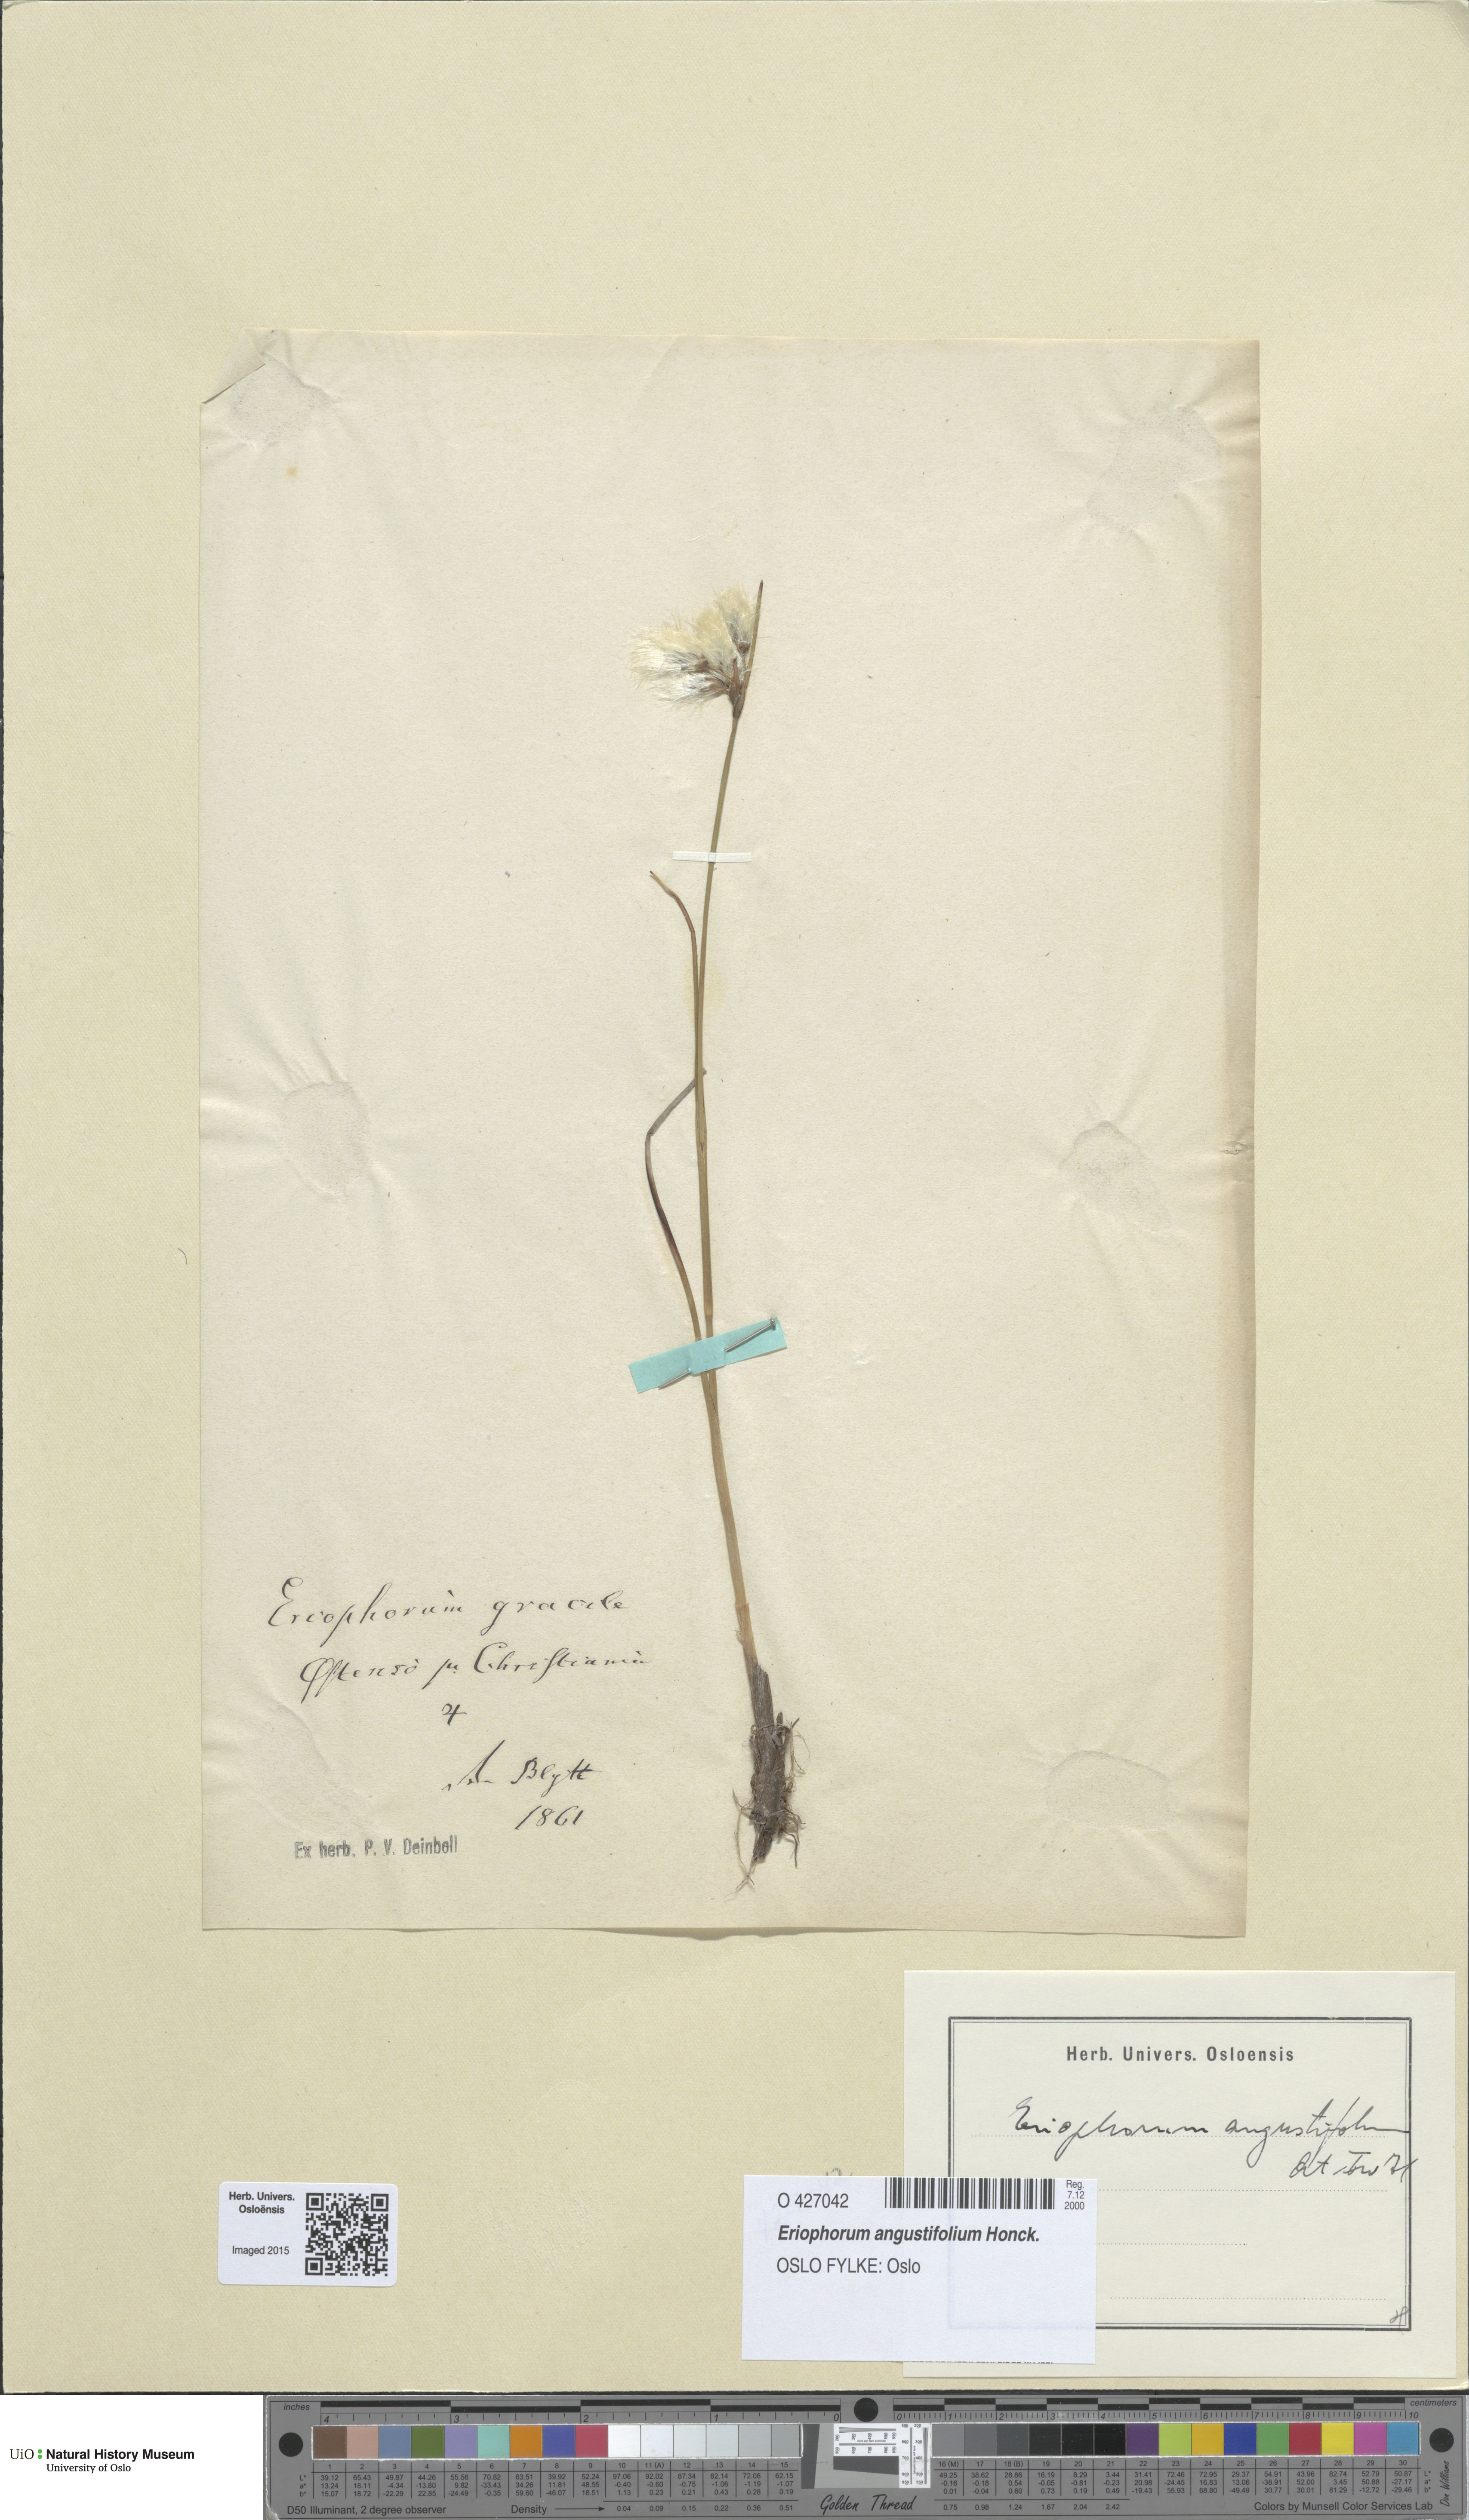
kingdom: Plantae
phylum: Tracheophyta
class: Liliopsida
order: Poales
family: Cyperaceae
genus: Eriophorum
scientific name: Eriophorum angustifolium
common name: Common cottongrass
